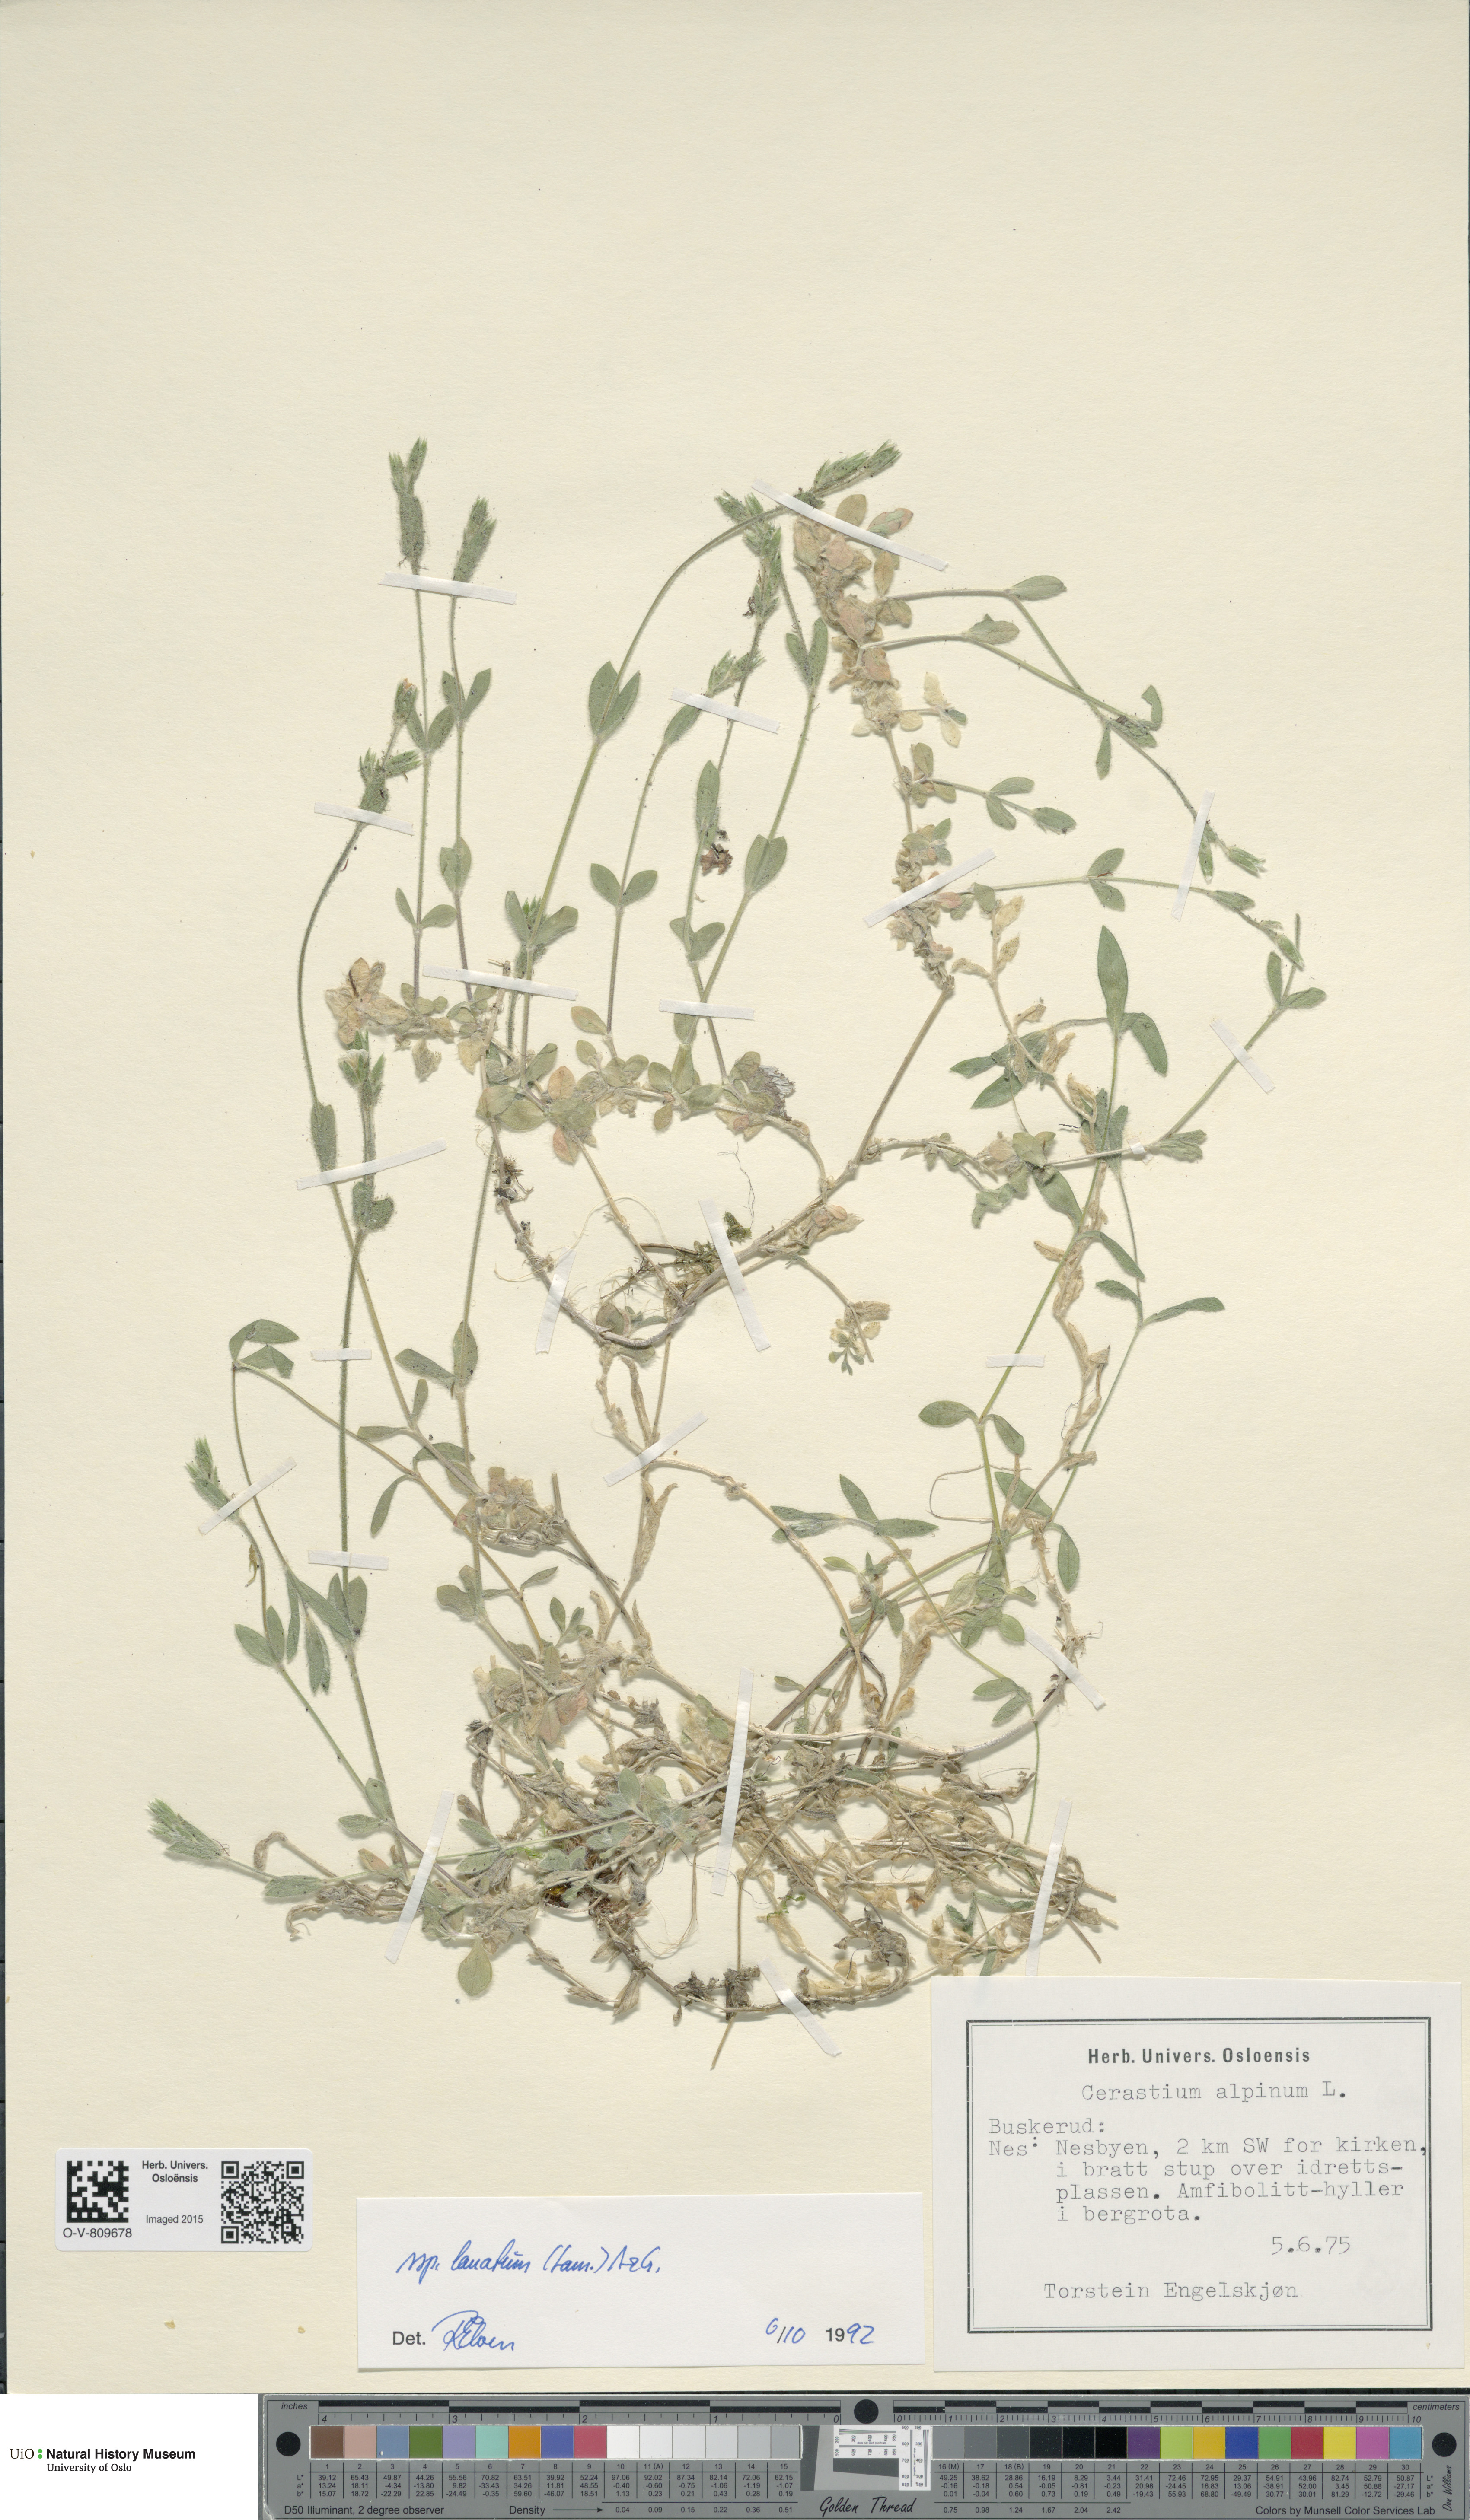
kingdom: Plantae
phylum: Tracheophyta
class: Magnoliopsida
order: Caryophyllales
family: Caryophyllaceae
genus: Cerastium
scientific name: Cerastium alpinum
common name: Alpine mouse-ear
